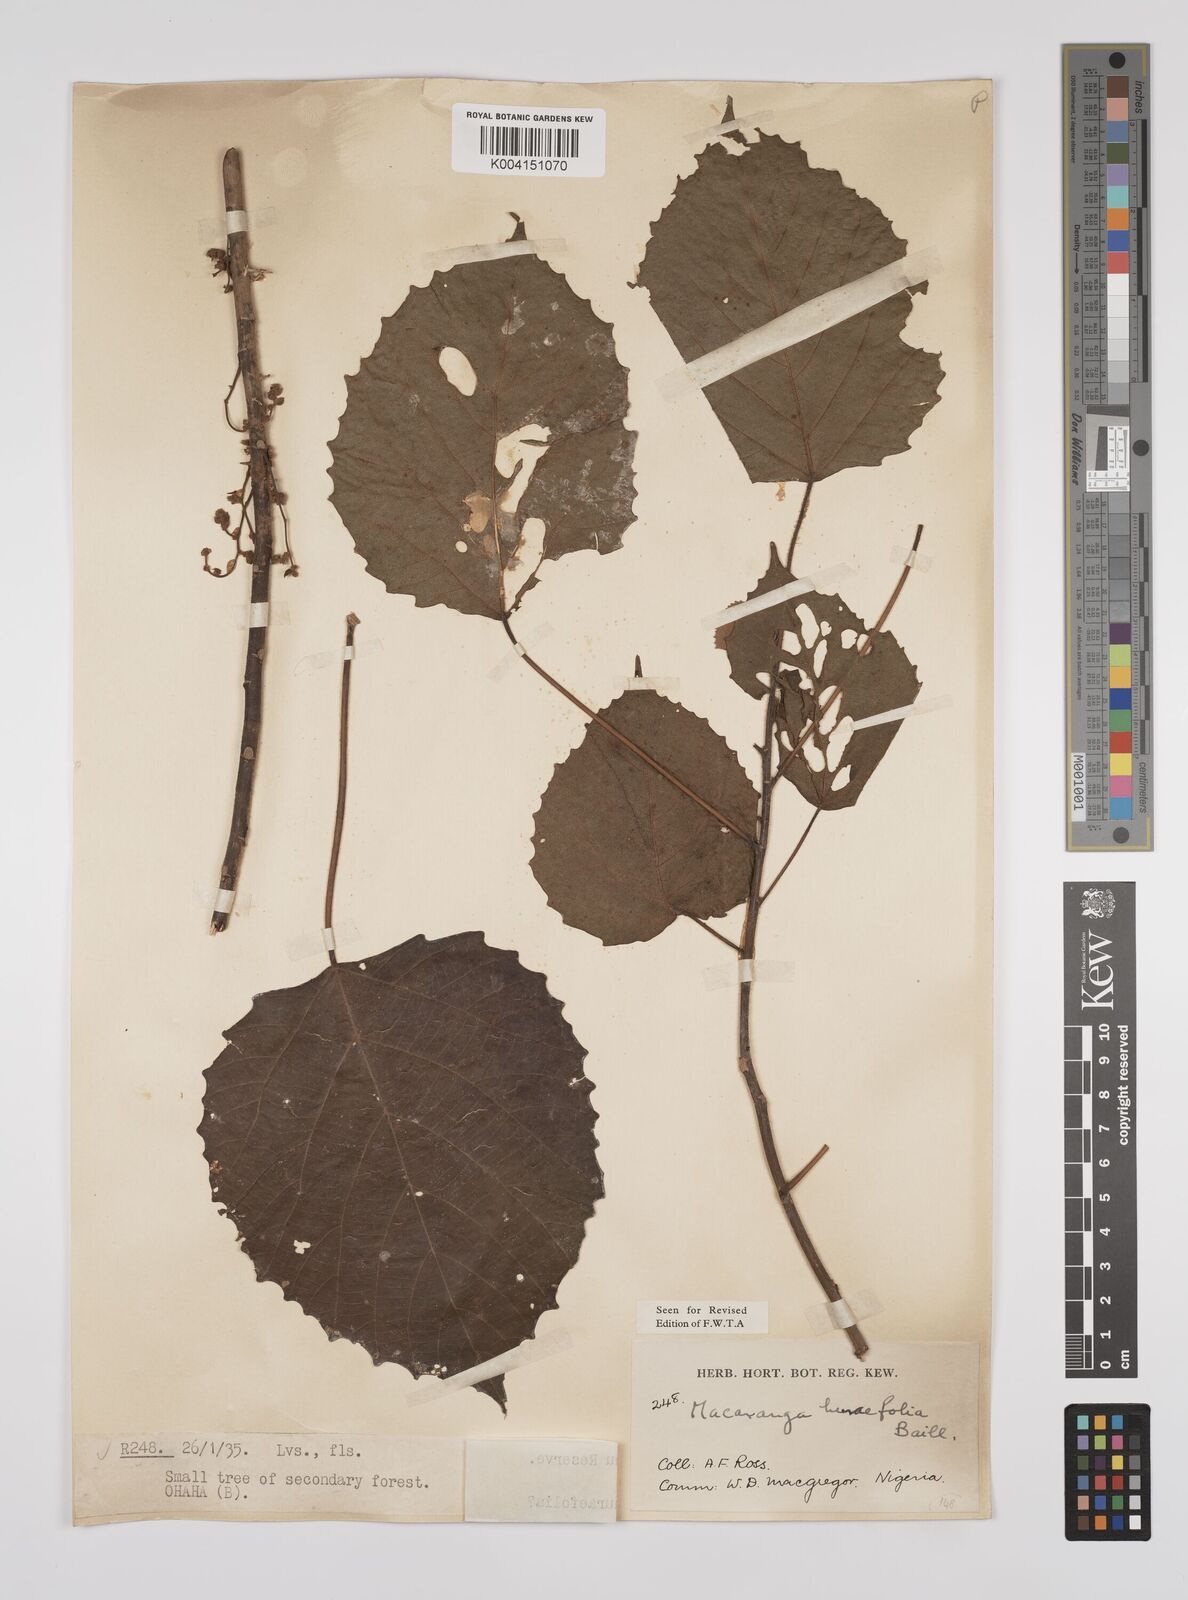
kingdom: Plantae
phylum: Tracheophyta
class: Magnoliopsida
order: Malpighiales
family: Euphorbiaceae
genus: Macaranga
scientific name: Macaranga hurifolia
